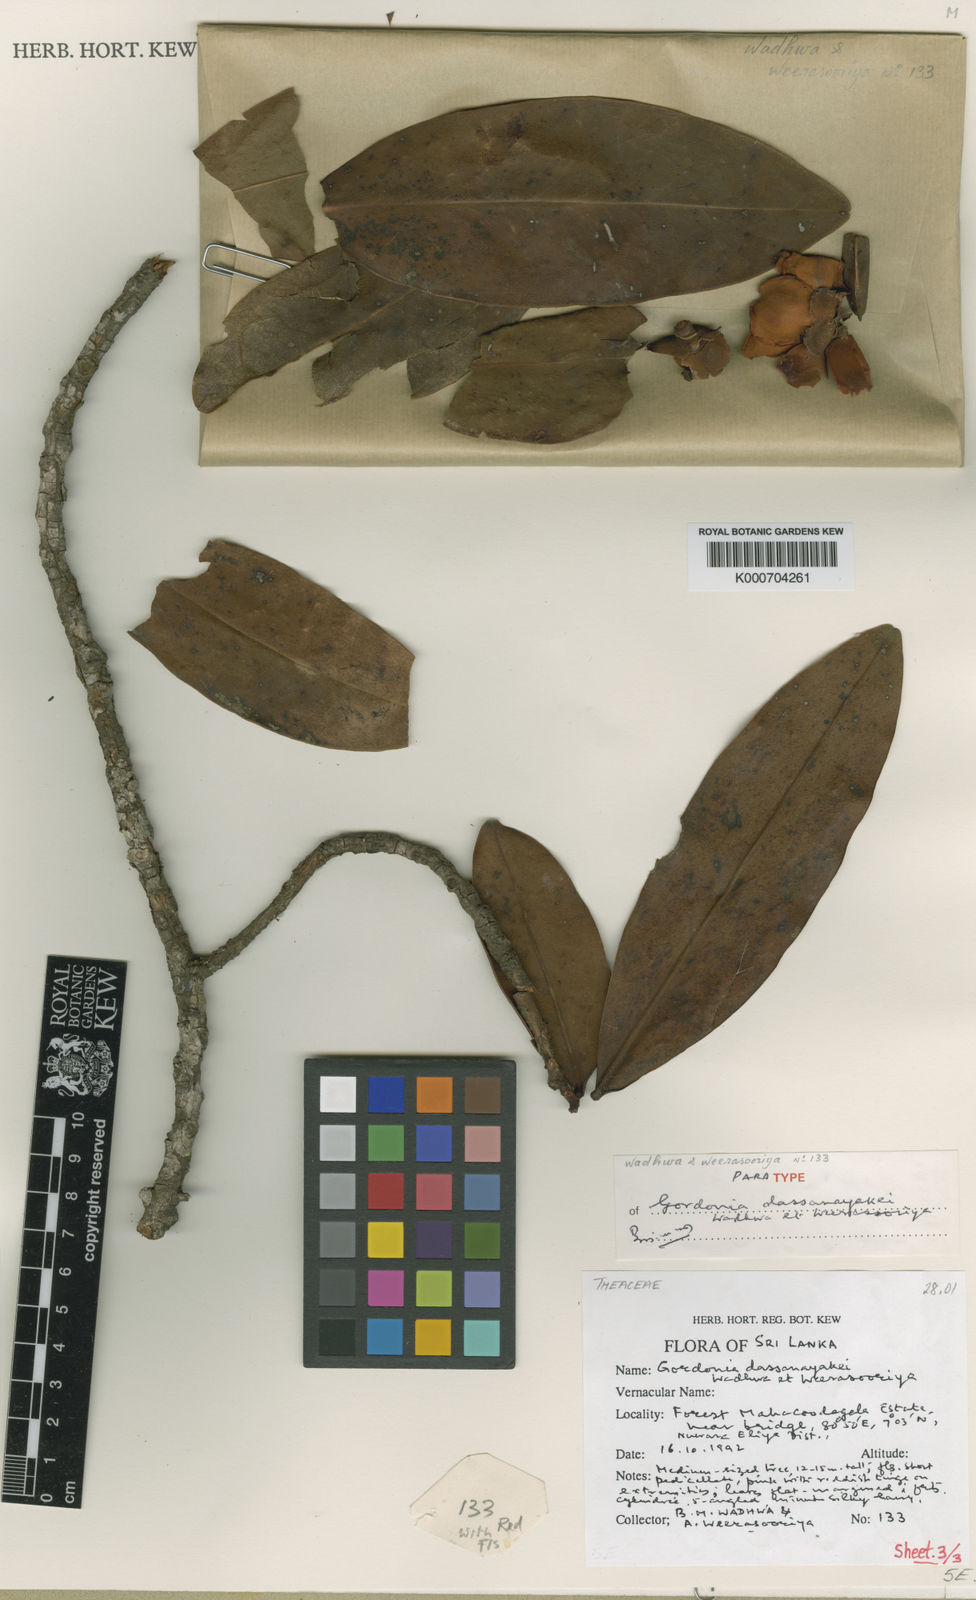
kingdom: Plantae
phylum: Tracheophyta
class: Magnoliopsida
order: Ericales
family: Theaceae
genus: Polyspora
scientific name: Polyspora dassanayakei
